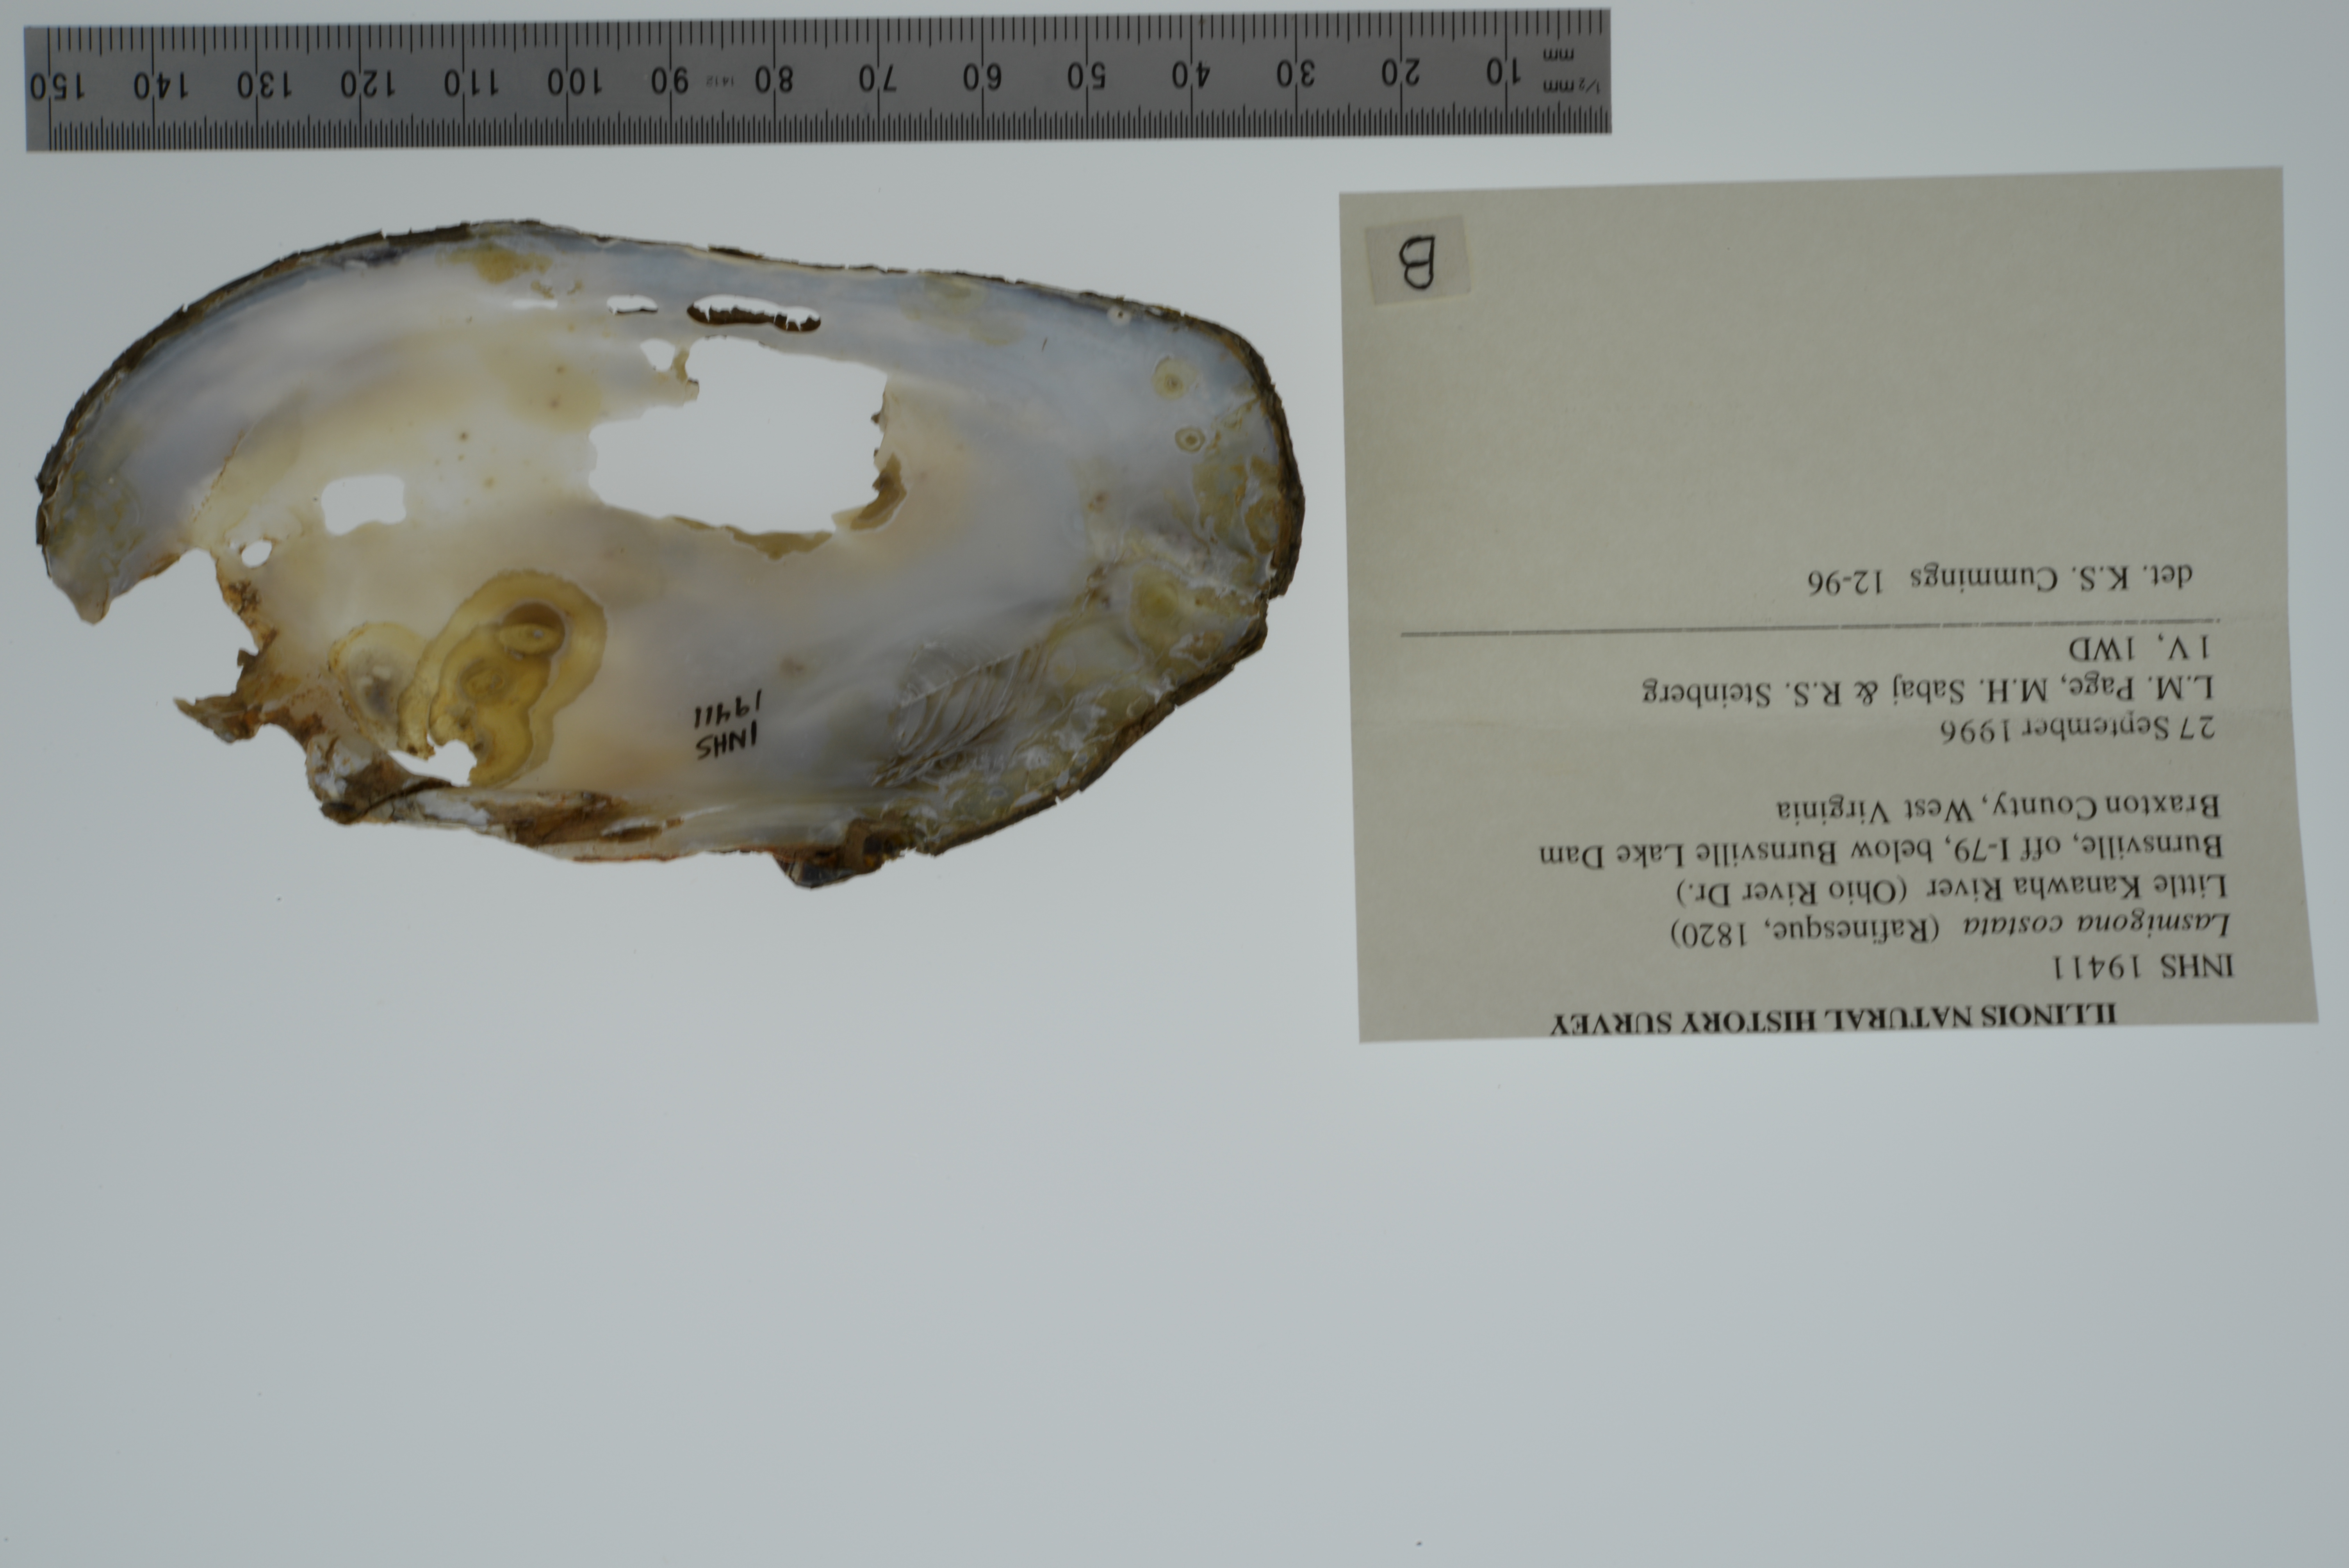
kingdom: Animalia
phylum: Mollusca
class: Bivalvia
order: Unionida
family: Unionidae
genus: Lasmigona
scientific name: Lasmigona costata
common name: Flutedshell
